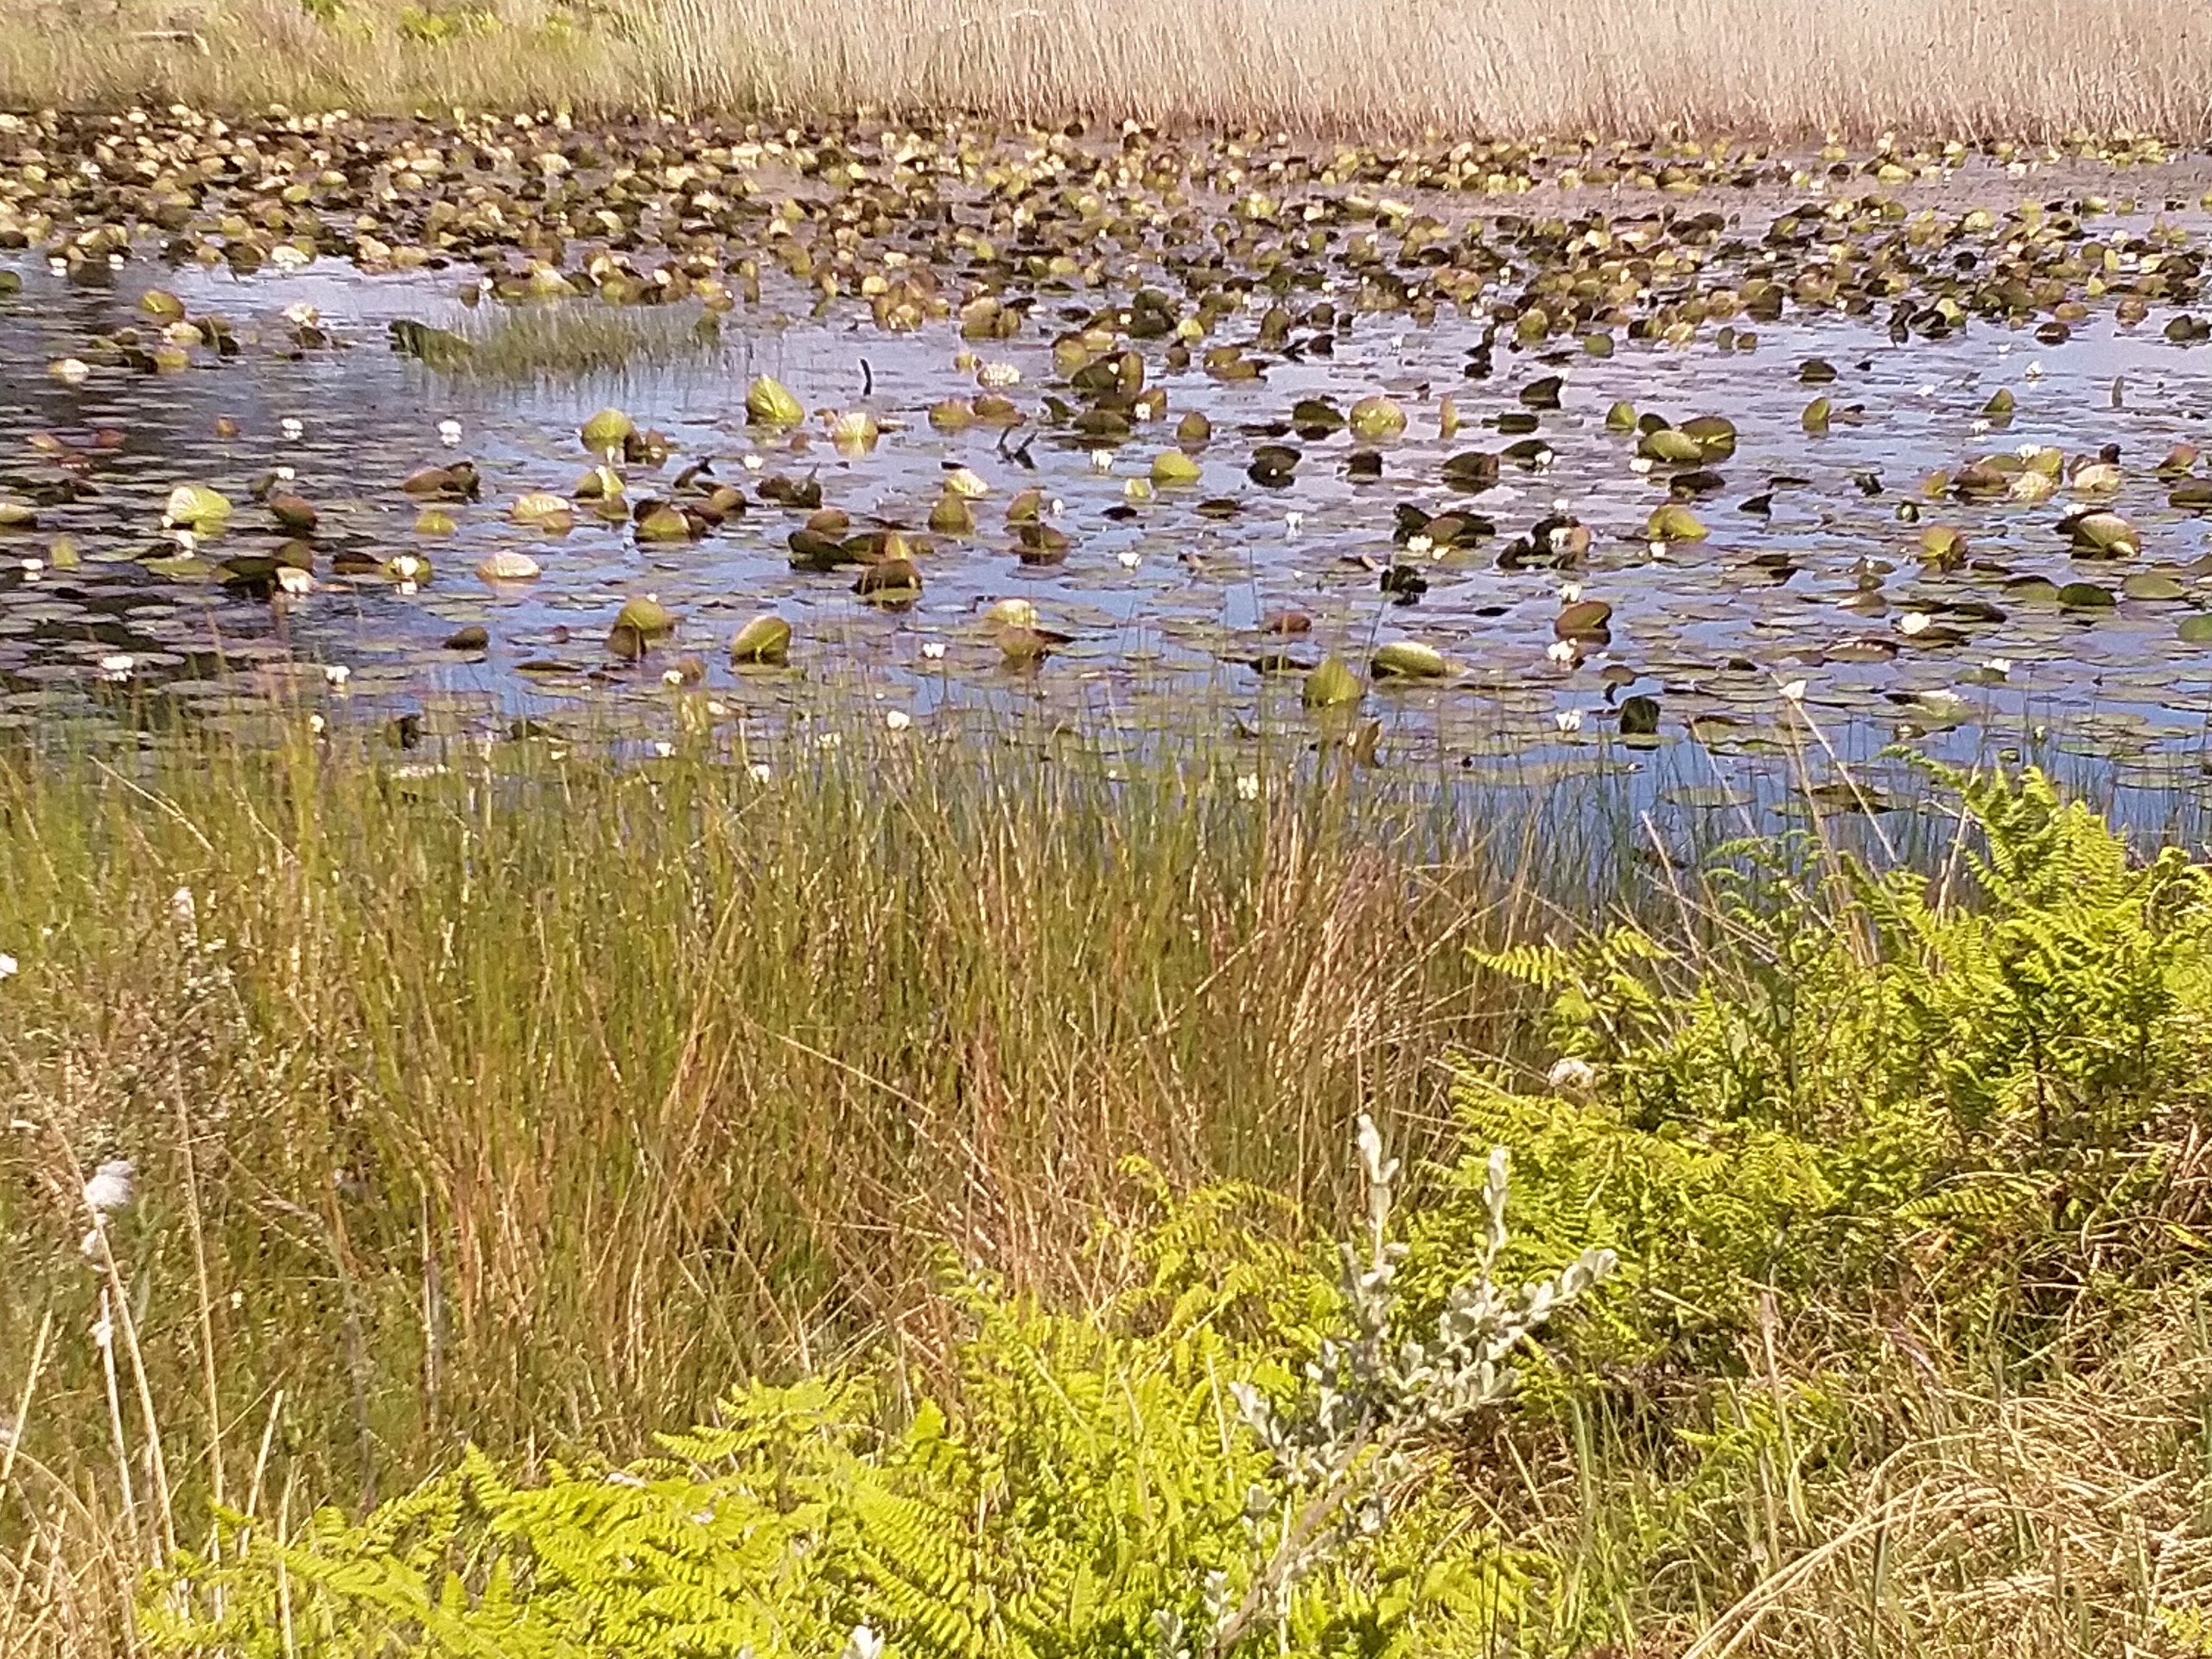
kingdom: Plantae
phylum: Tracheophyta
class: Magnoliopsida
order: Nymphaeales
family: Nymphaeaceae
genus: Nymphaea
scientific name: Nymphaea alba
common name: Hvid åkande
